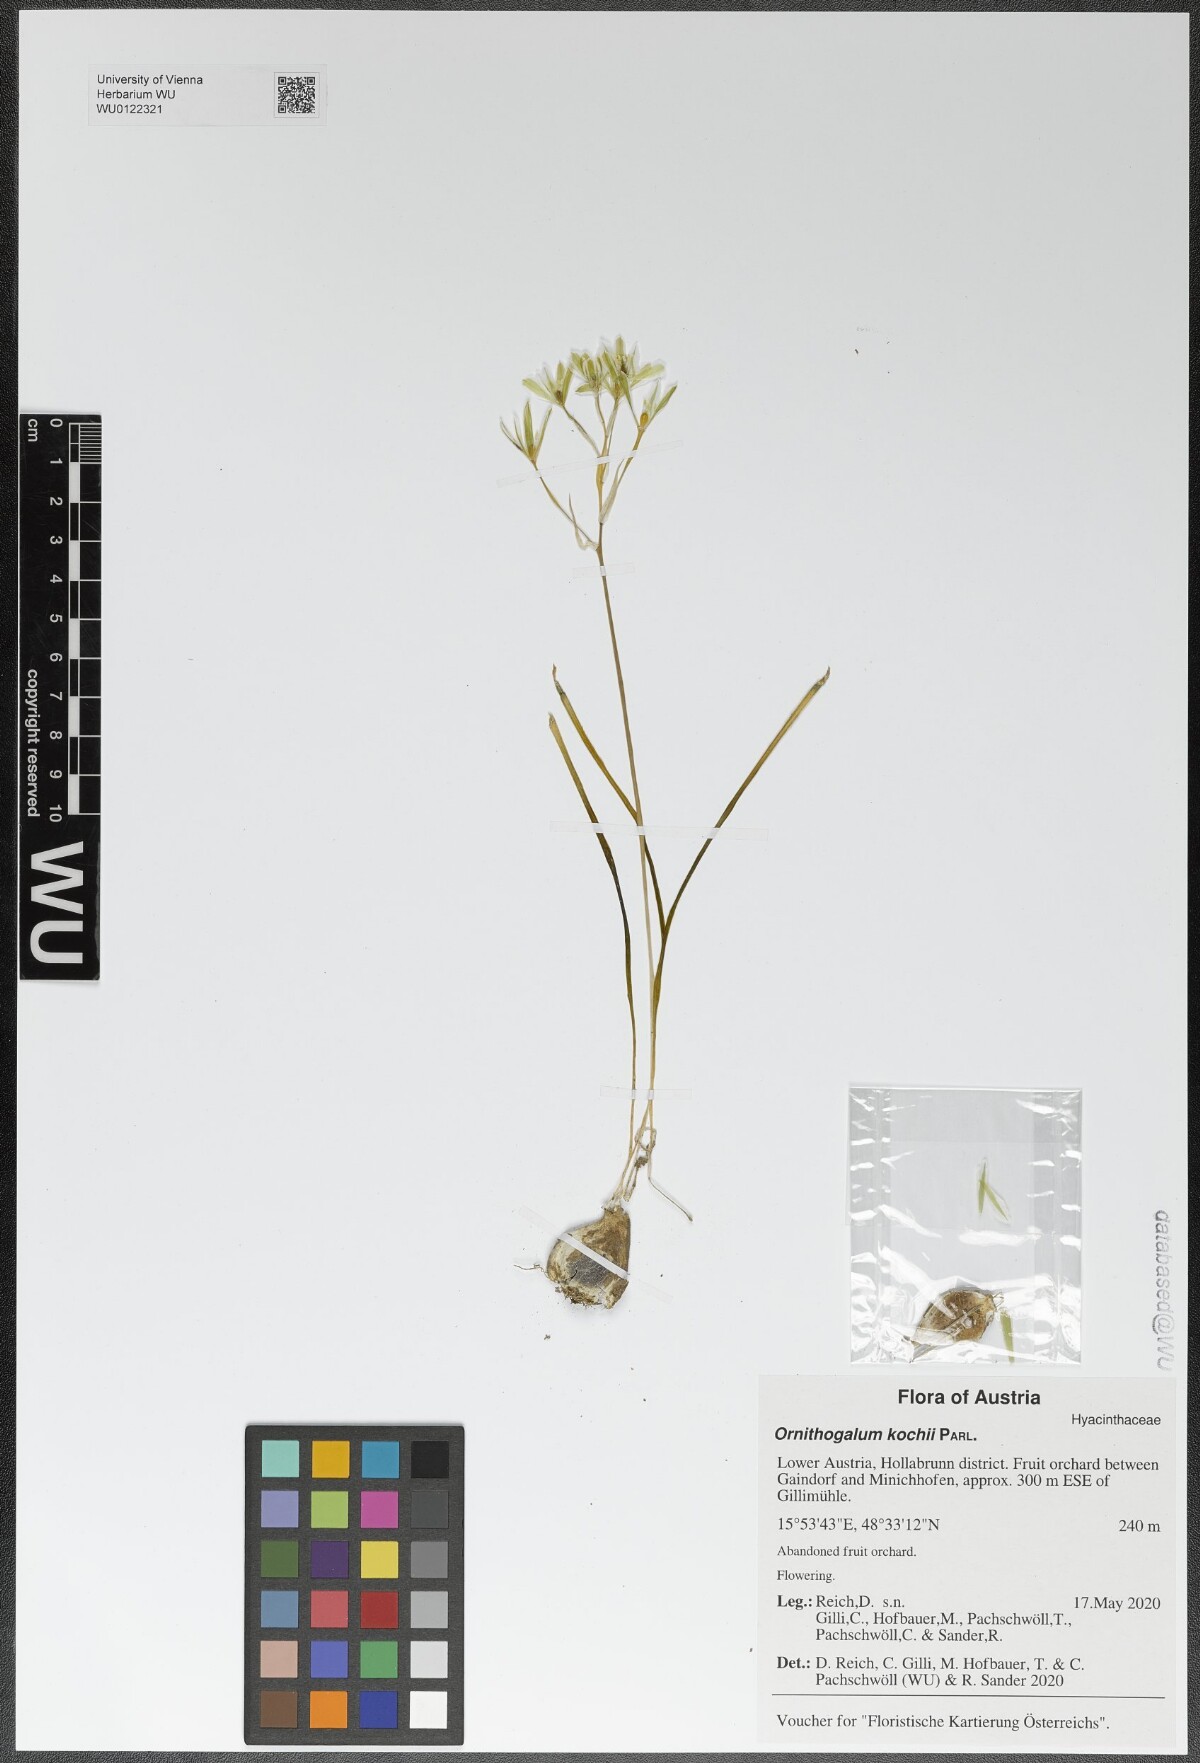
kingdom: Plantae
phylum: Tracheophyta
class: Liliopsida
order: Asparagales
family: Asparagaceae
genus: Ornithogalum
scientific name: Ornithogalum orthophyllum
